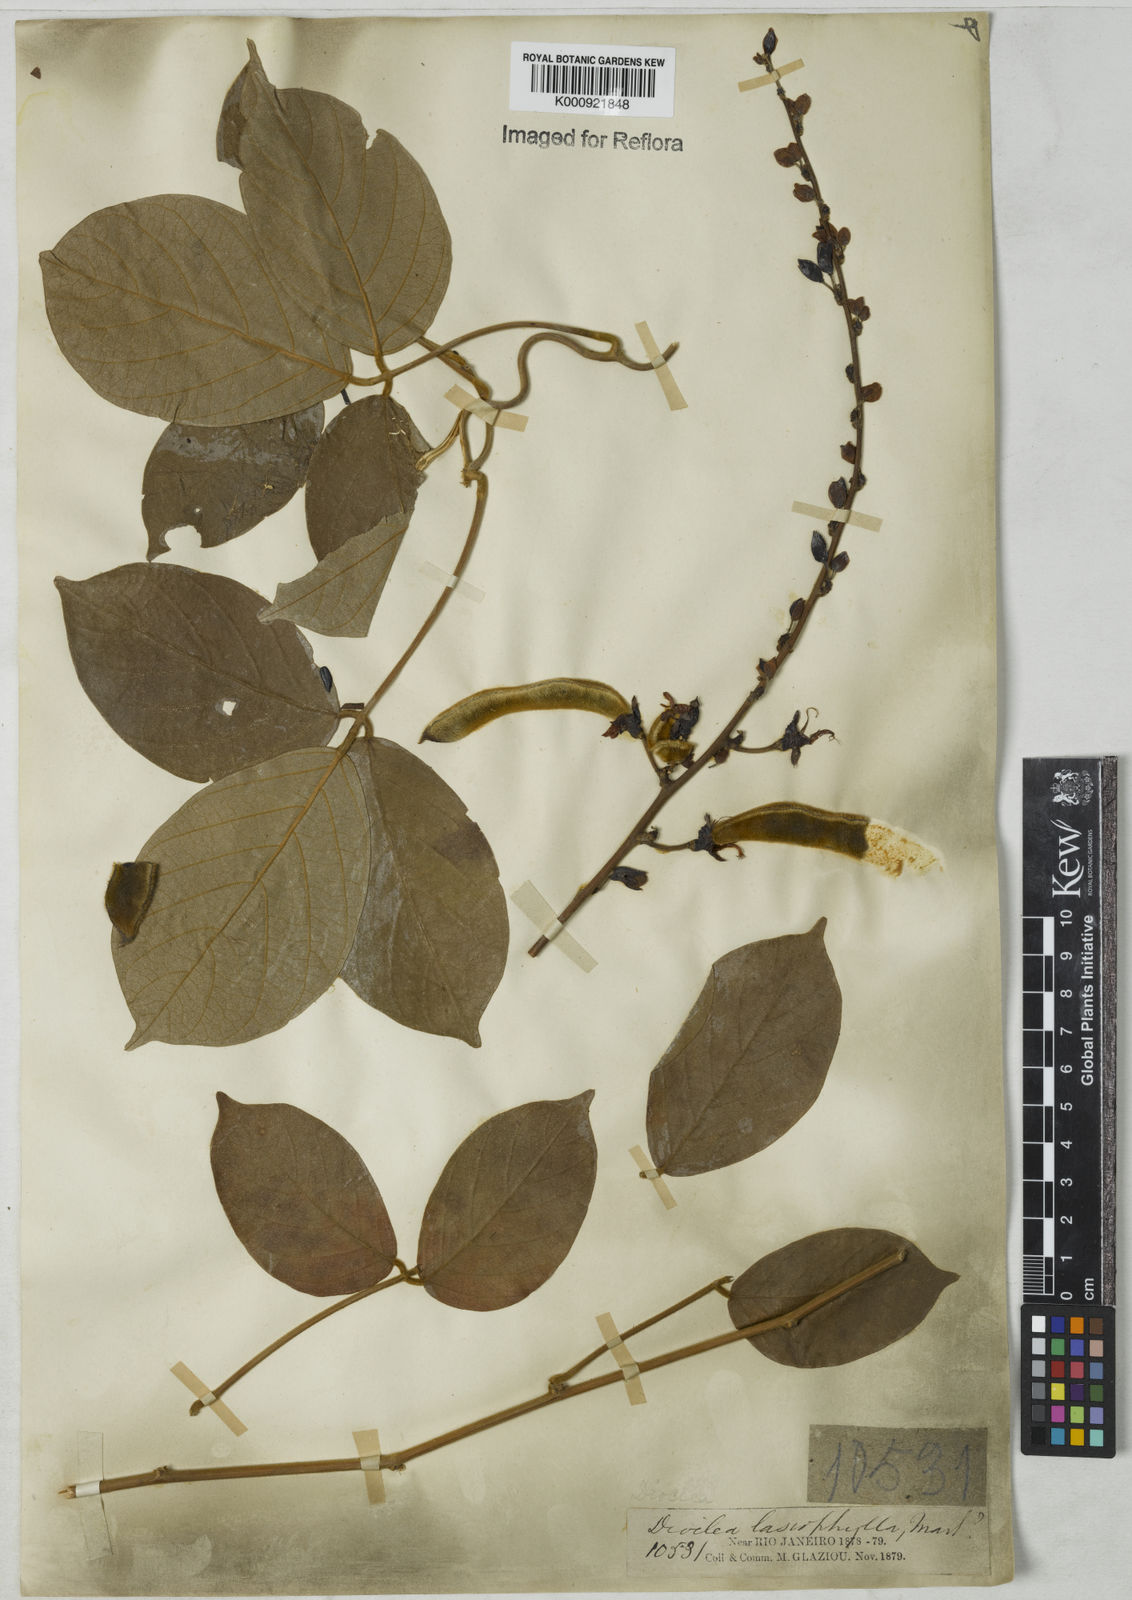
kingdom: Plantae
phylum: Tracheophyta
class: Magnoliopsida
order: Fabales
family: Fabaceae
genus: Dioclea
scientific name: Dioclea virgata
